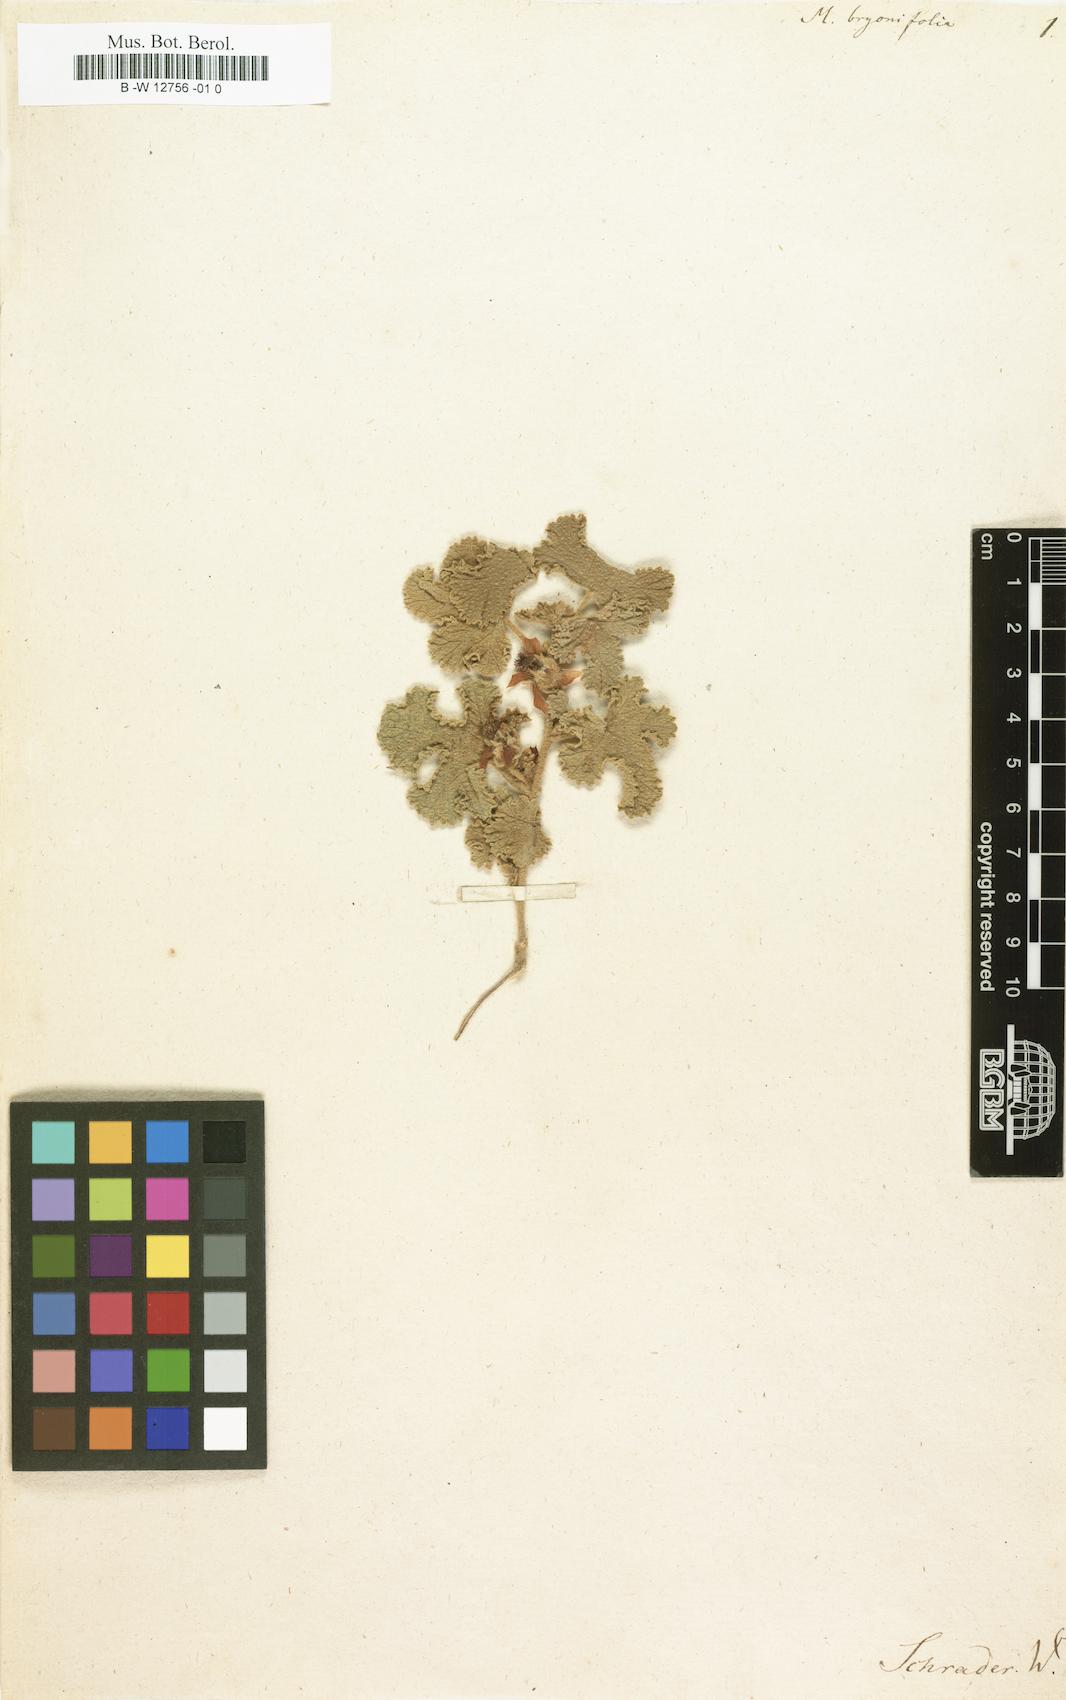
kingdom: Plantae
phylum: Tracheophyta
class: Magnoliopsida
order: Malvales
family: Malvaceae
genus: Anisodontea
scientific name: Anisodontea
